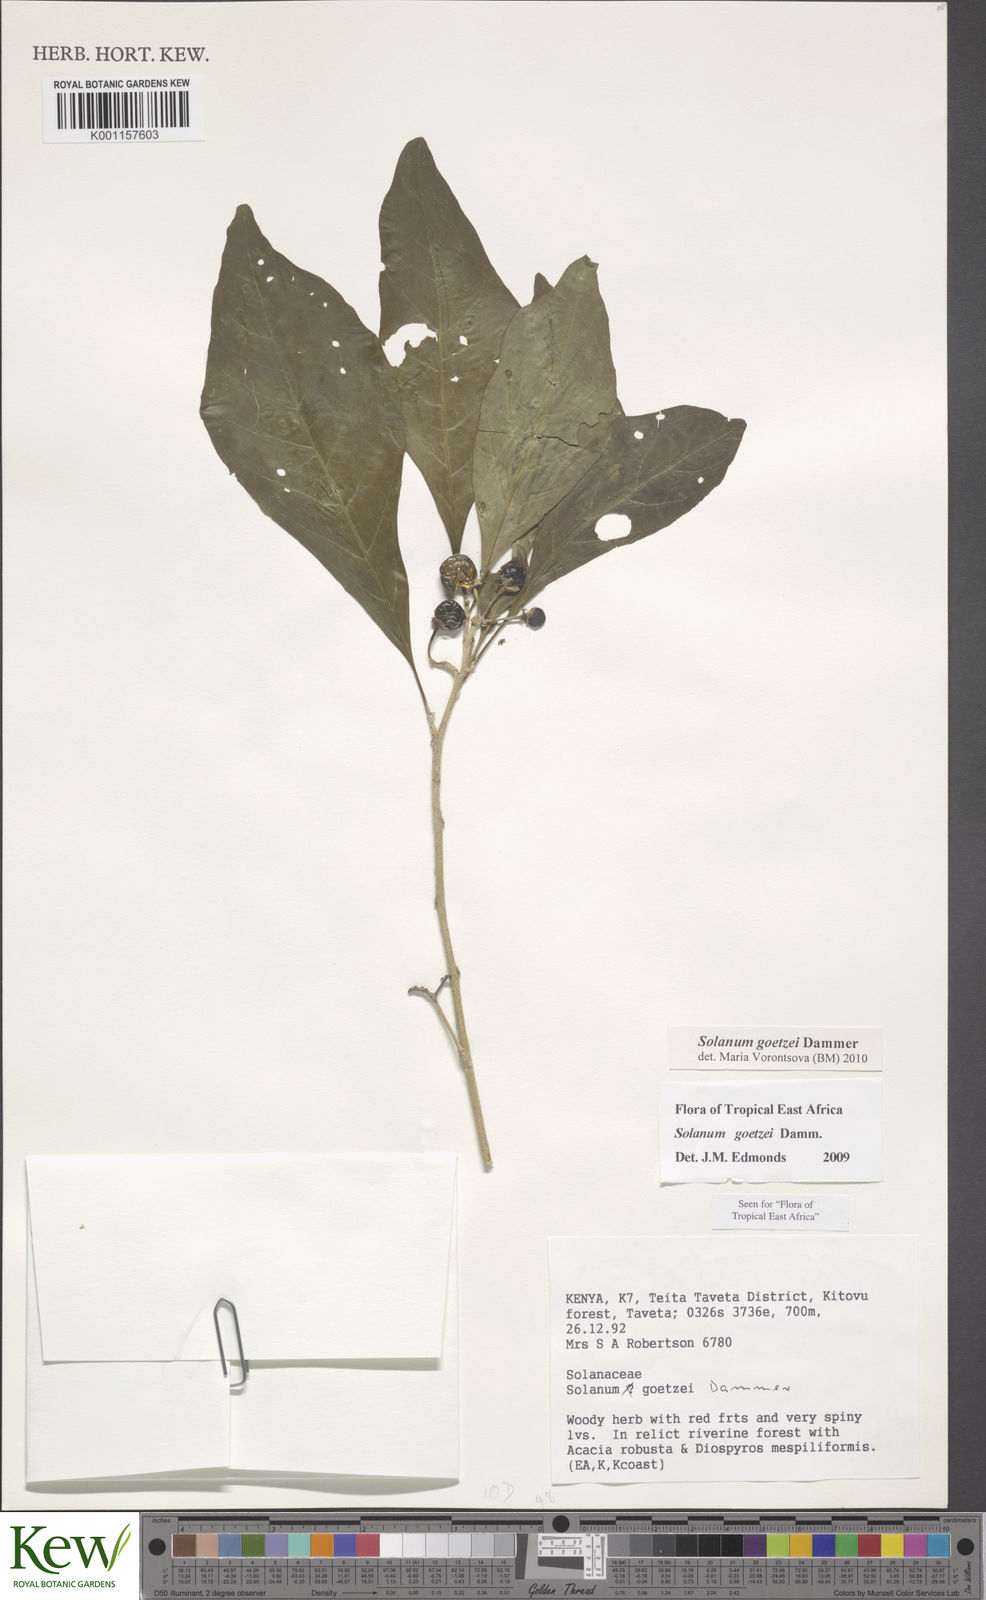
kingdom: Plantae
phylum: Tracheophyta
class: Magnoliopsida
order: Solanales
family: Solanaceae
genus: Solanum
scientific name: Solanum goetzei
